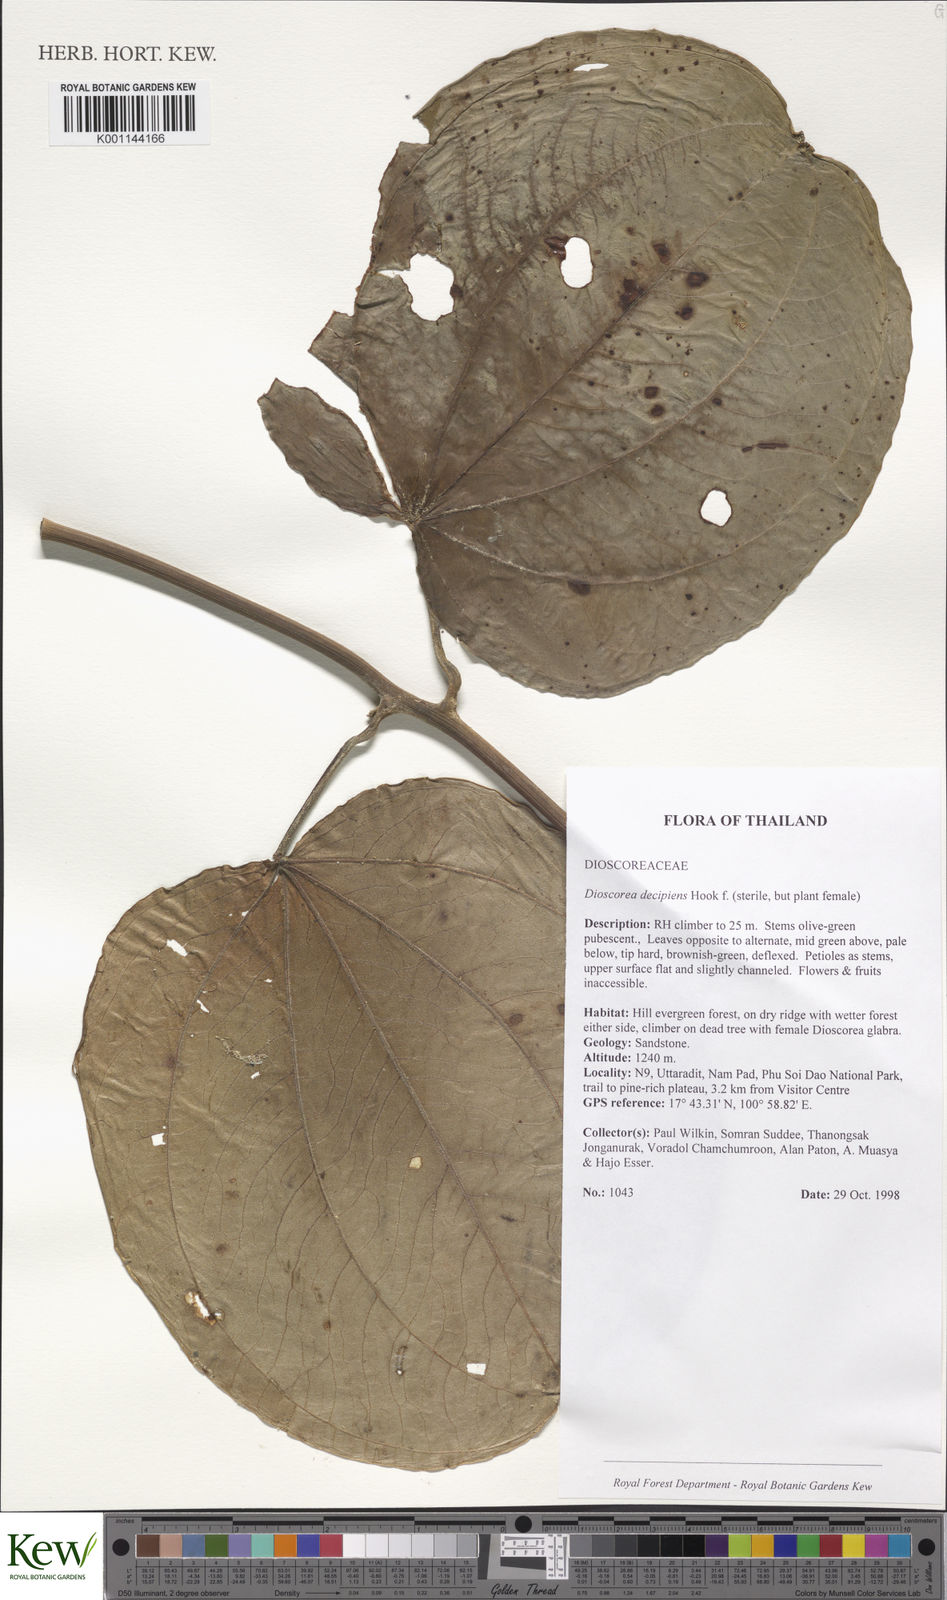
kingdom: Plantae
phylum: Tracheophyta
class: Liliopsida
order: Dioscoreales
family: Dioscoreaceae
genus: Dioscorea
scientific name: Dioscorea decipiens
